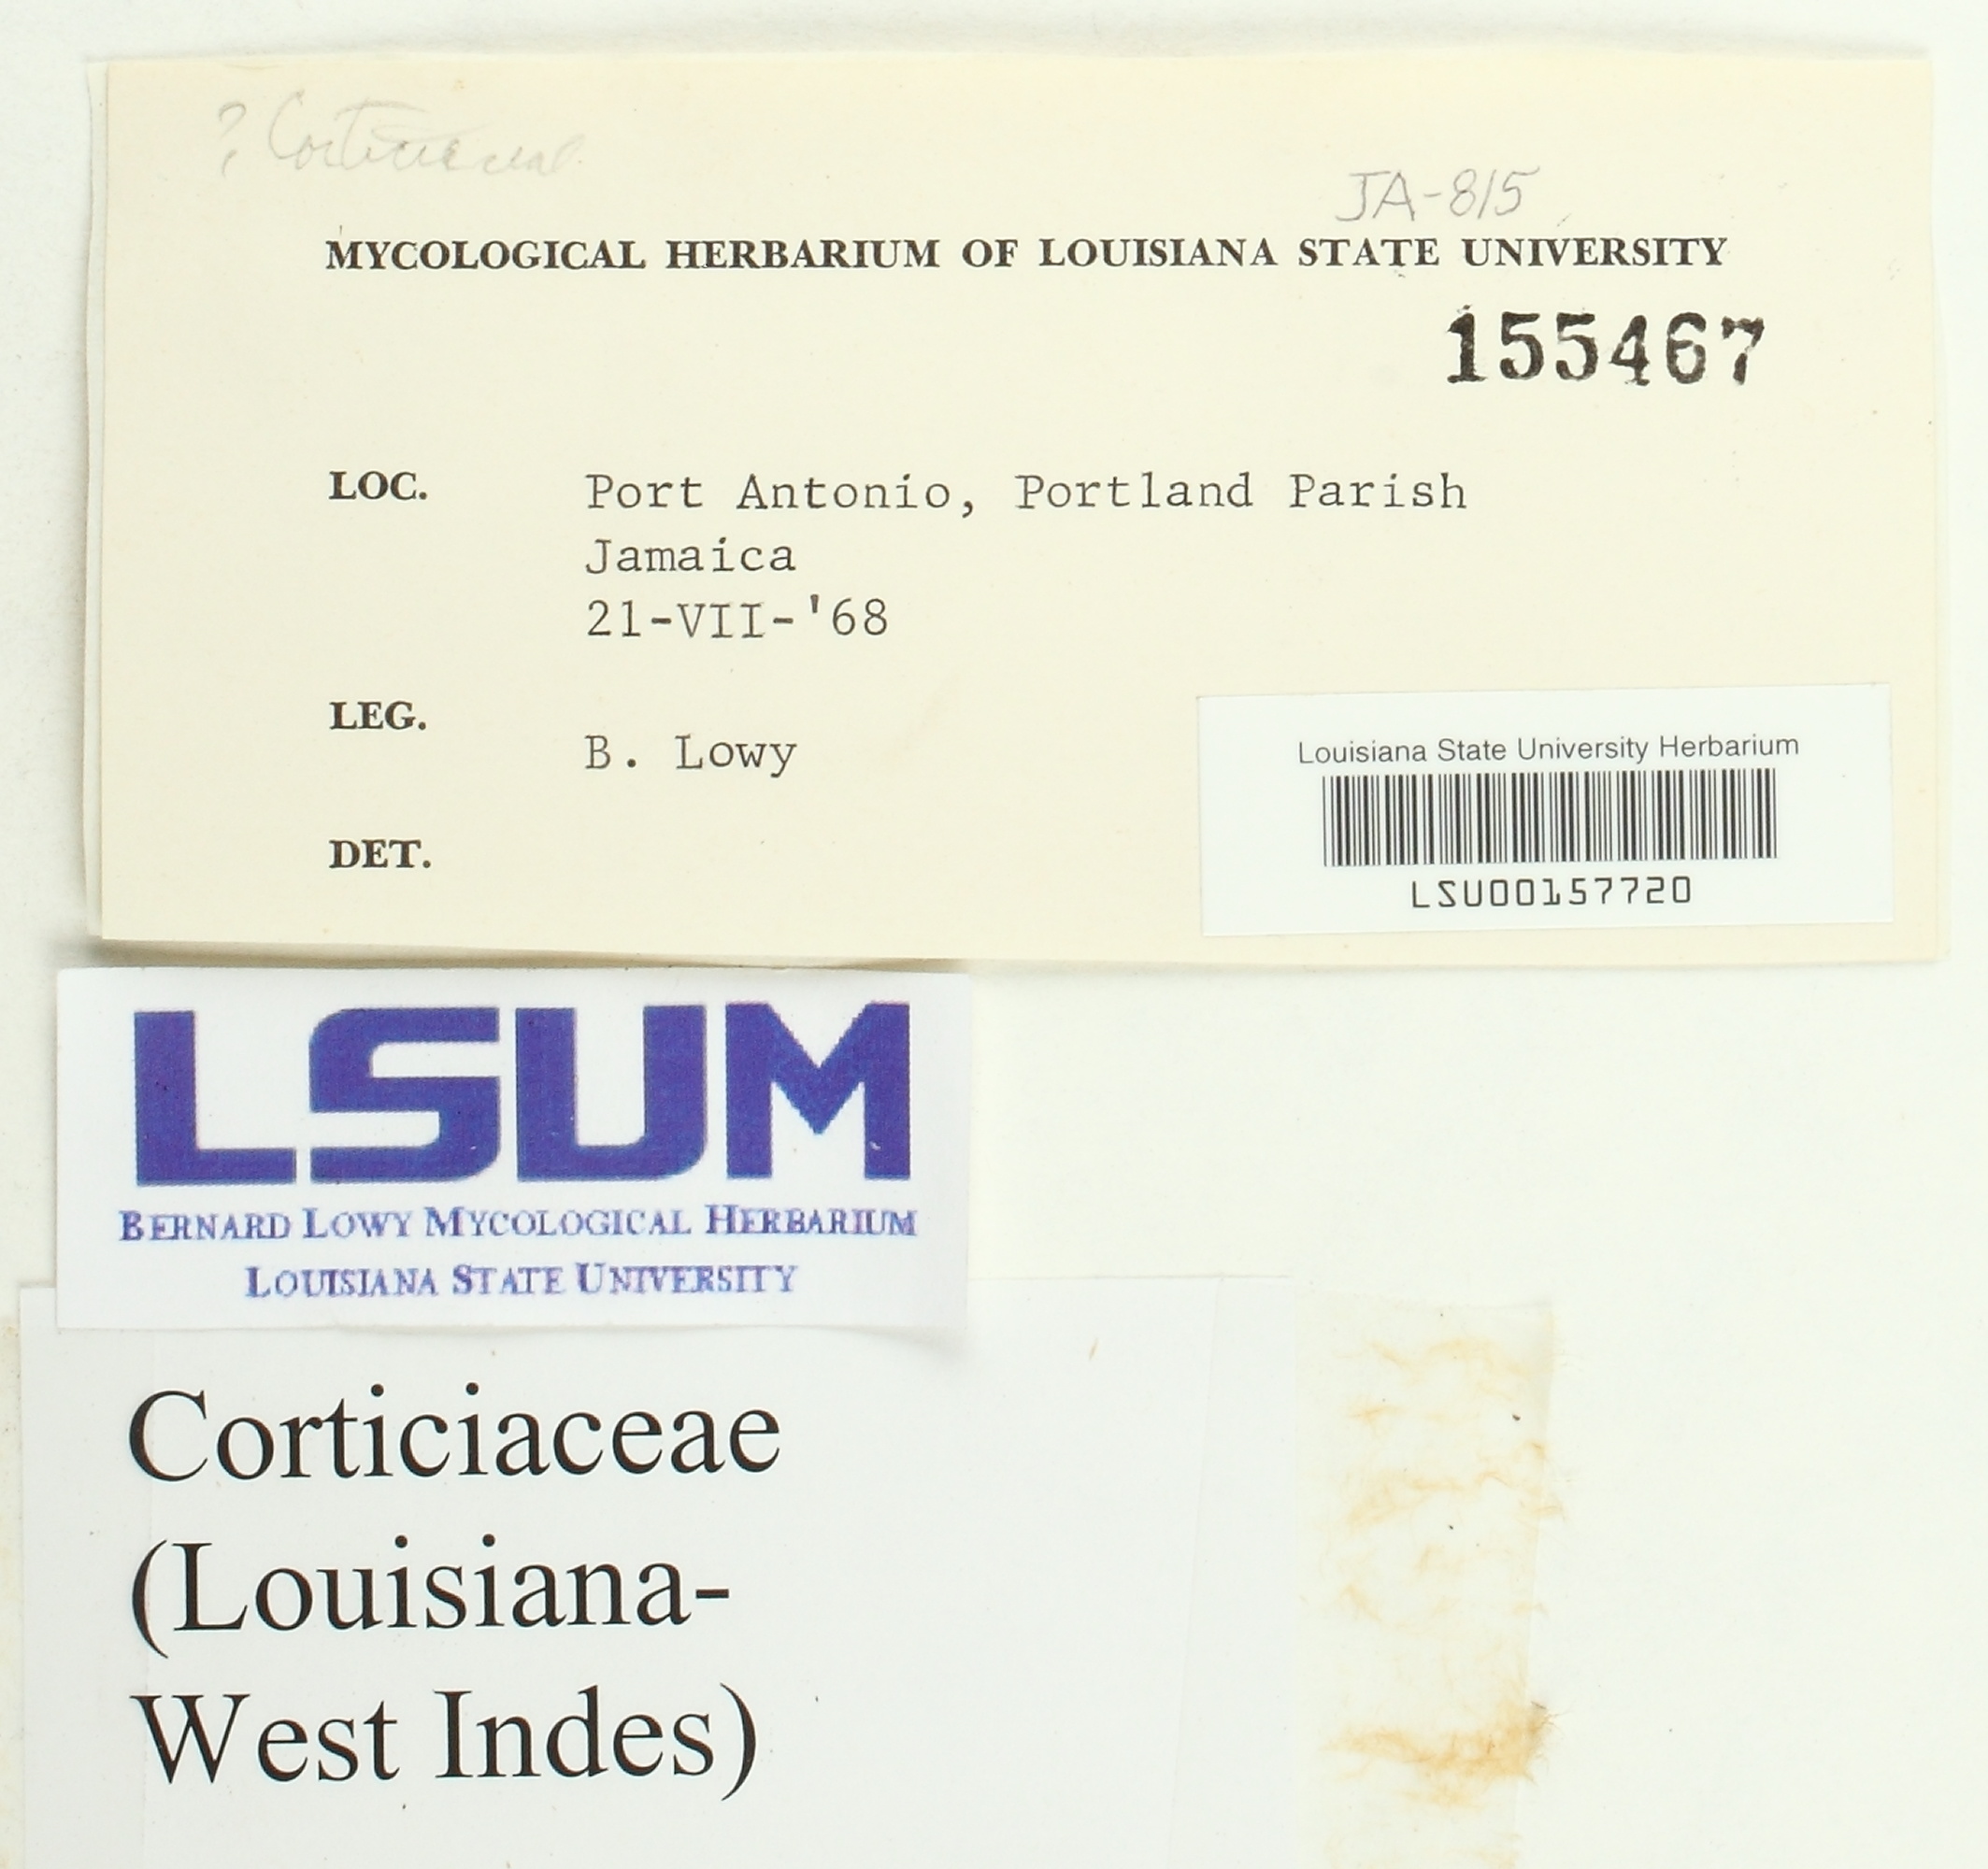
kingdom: Fungi
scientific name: Fungi
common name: Fungi
